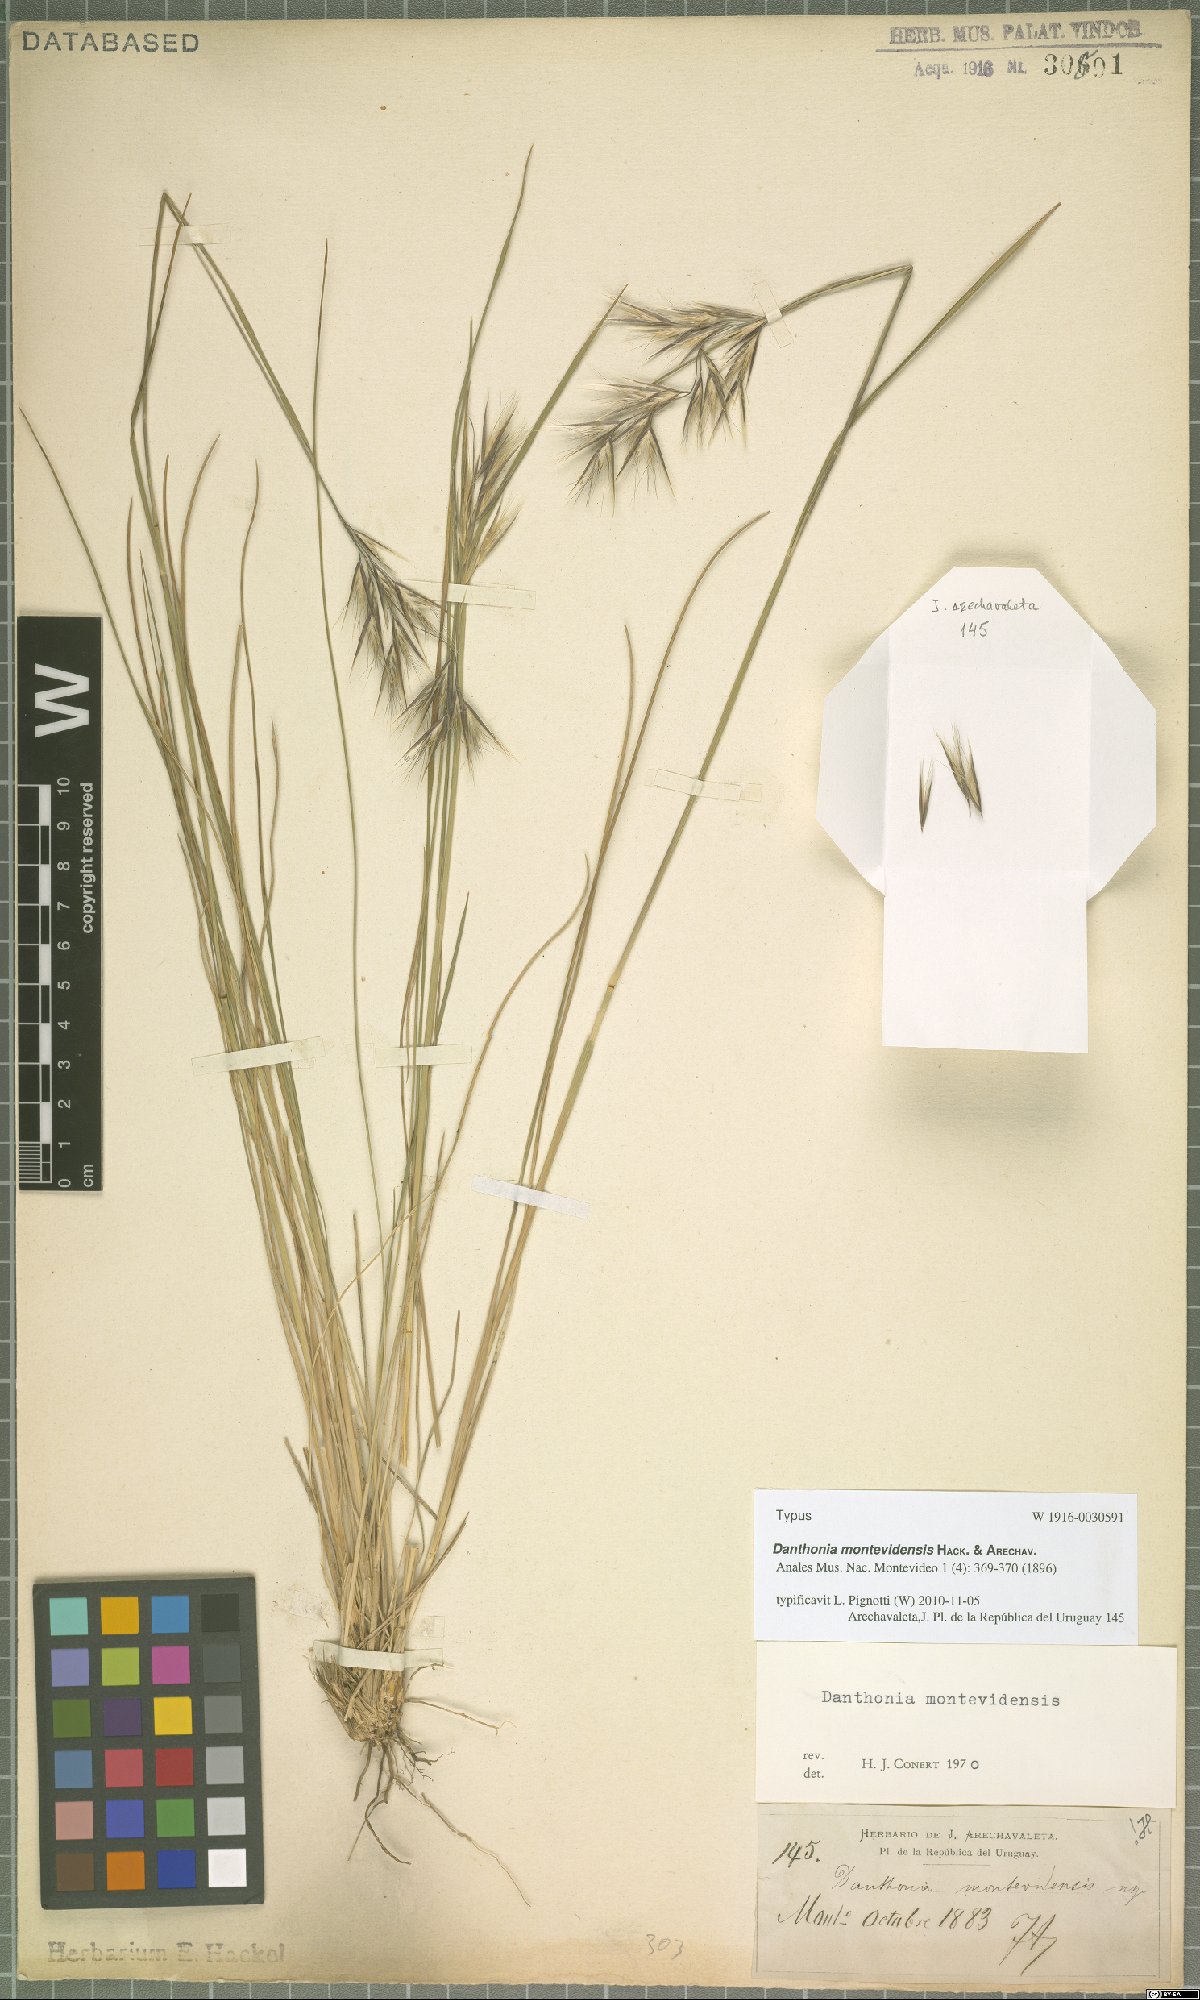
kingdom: Plantae
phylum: Tracheophyta
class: Liliopsida
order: Poales
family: Poaceae
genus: Danthonia
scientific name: Danthonia montevidensis
